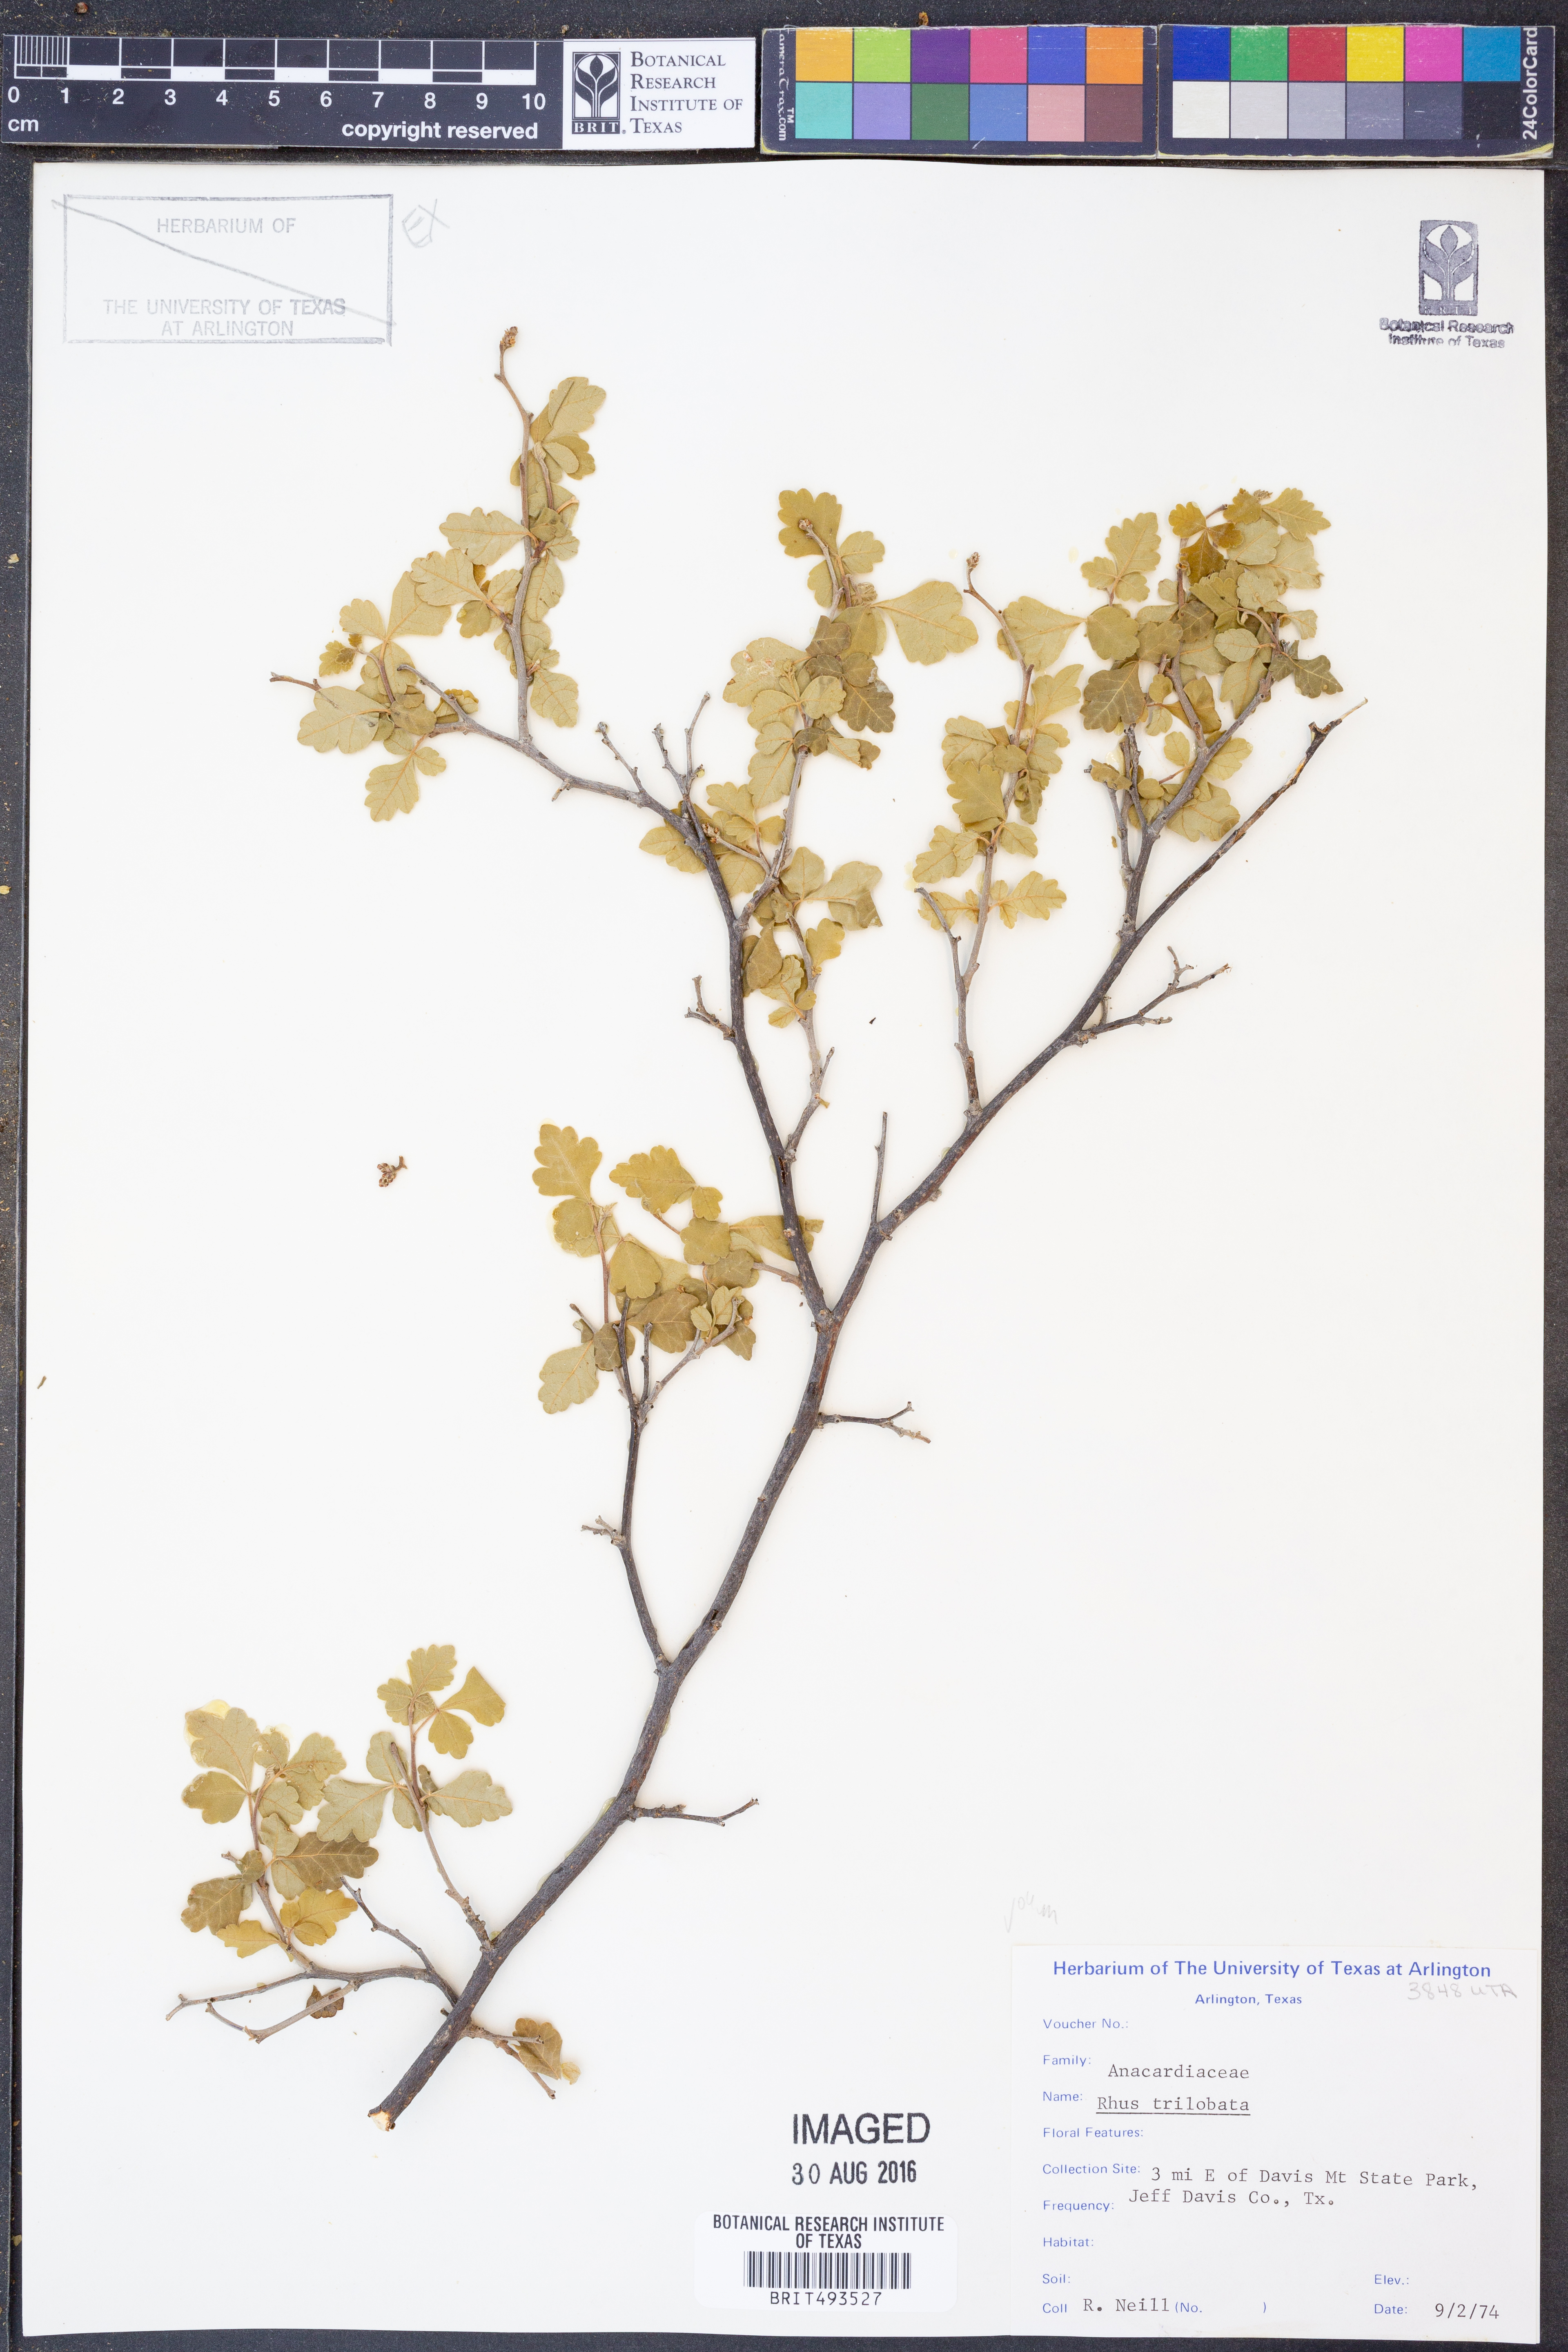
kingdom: Plantae
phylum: Tracheophyta
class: Magnoliopsida
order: Sapindales
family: Anacardiaceae
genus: Rhus
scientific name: Rhus trilobata
